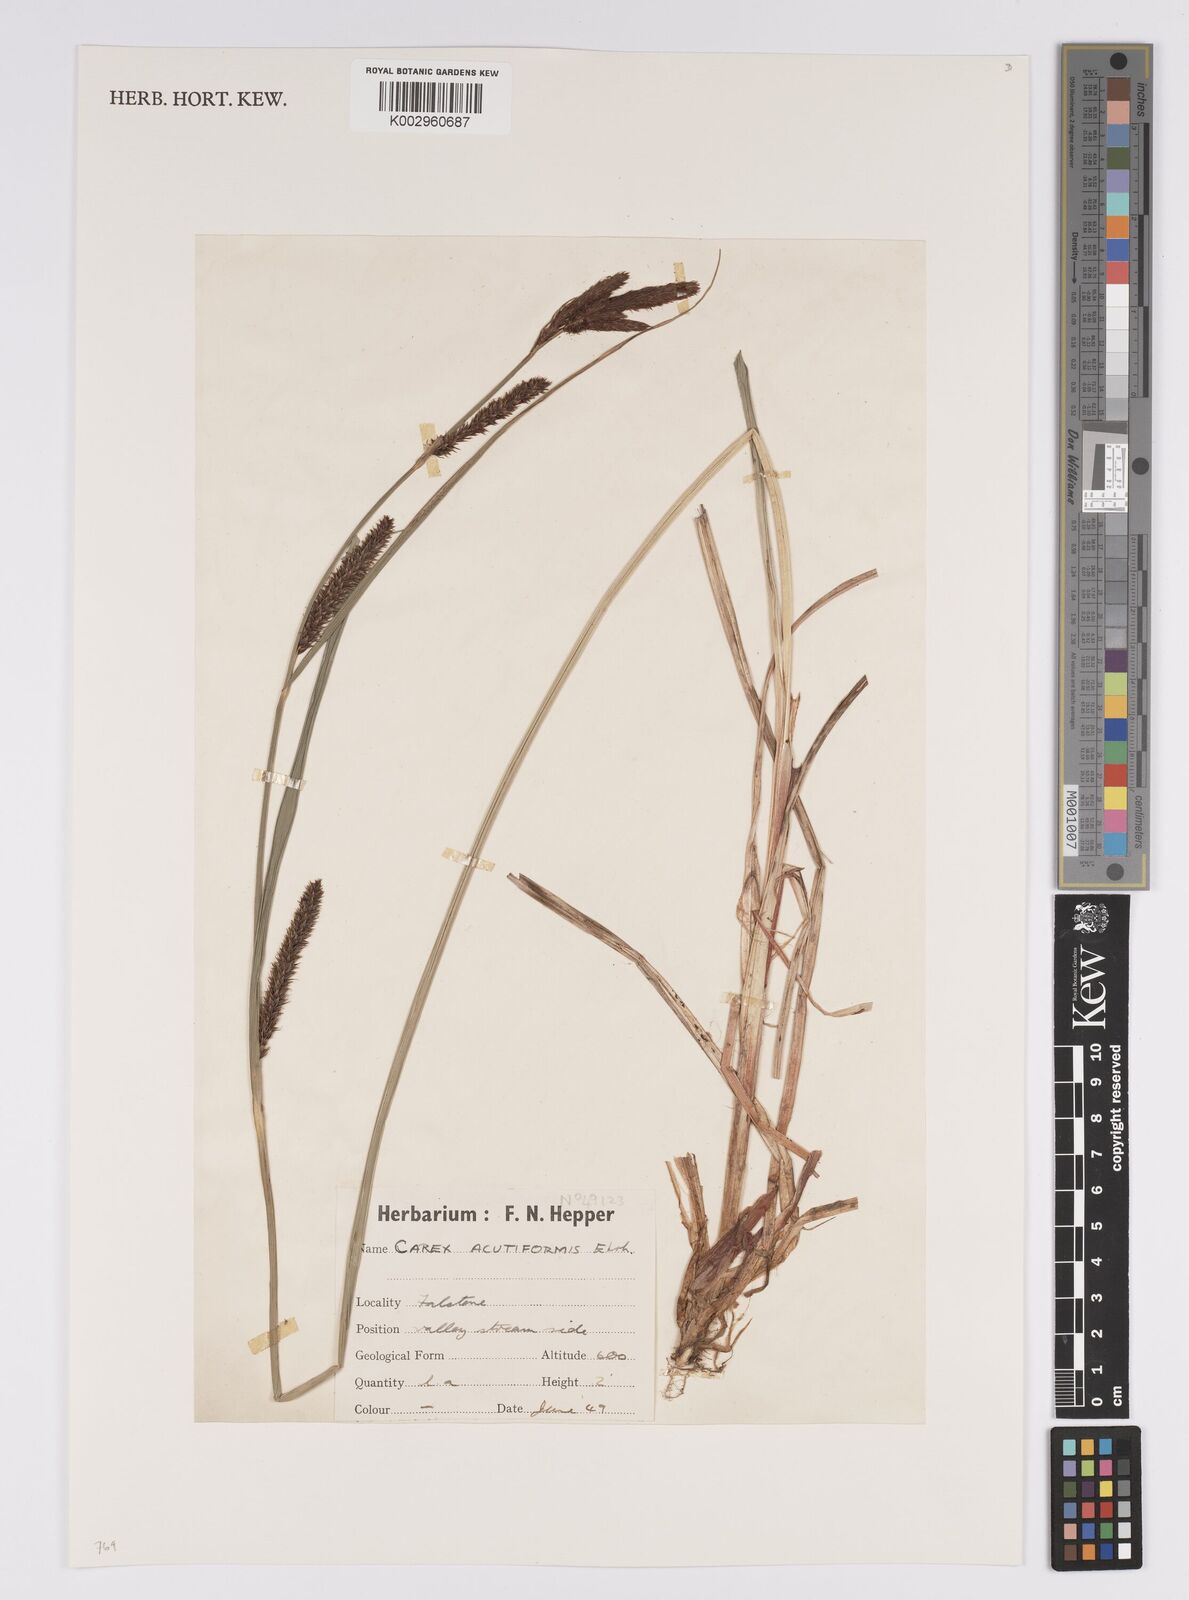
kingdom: Plantae
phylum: Tracheophyta
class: Liliopsida
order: Poales
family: Cyperaceae
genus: Carex
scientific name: Carex acutiformis
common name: Lesser pond-sedge
